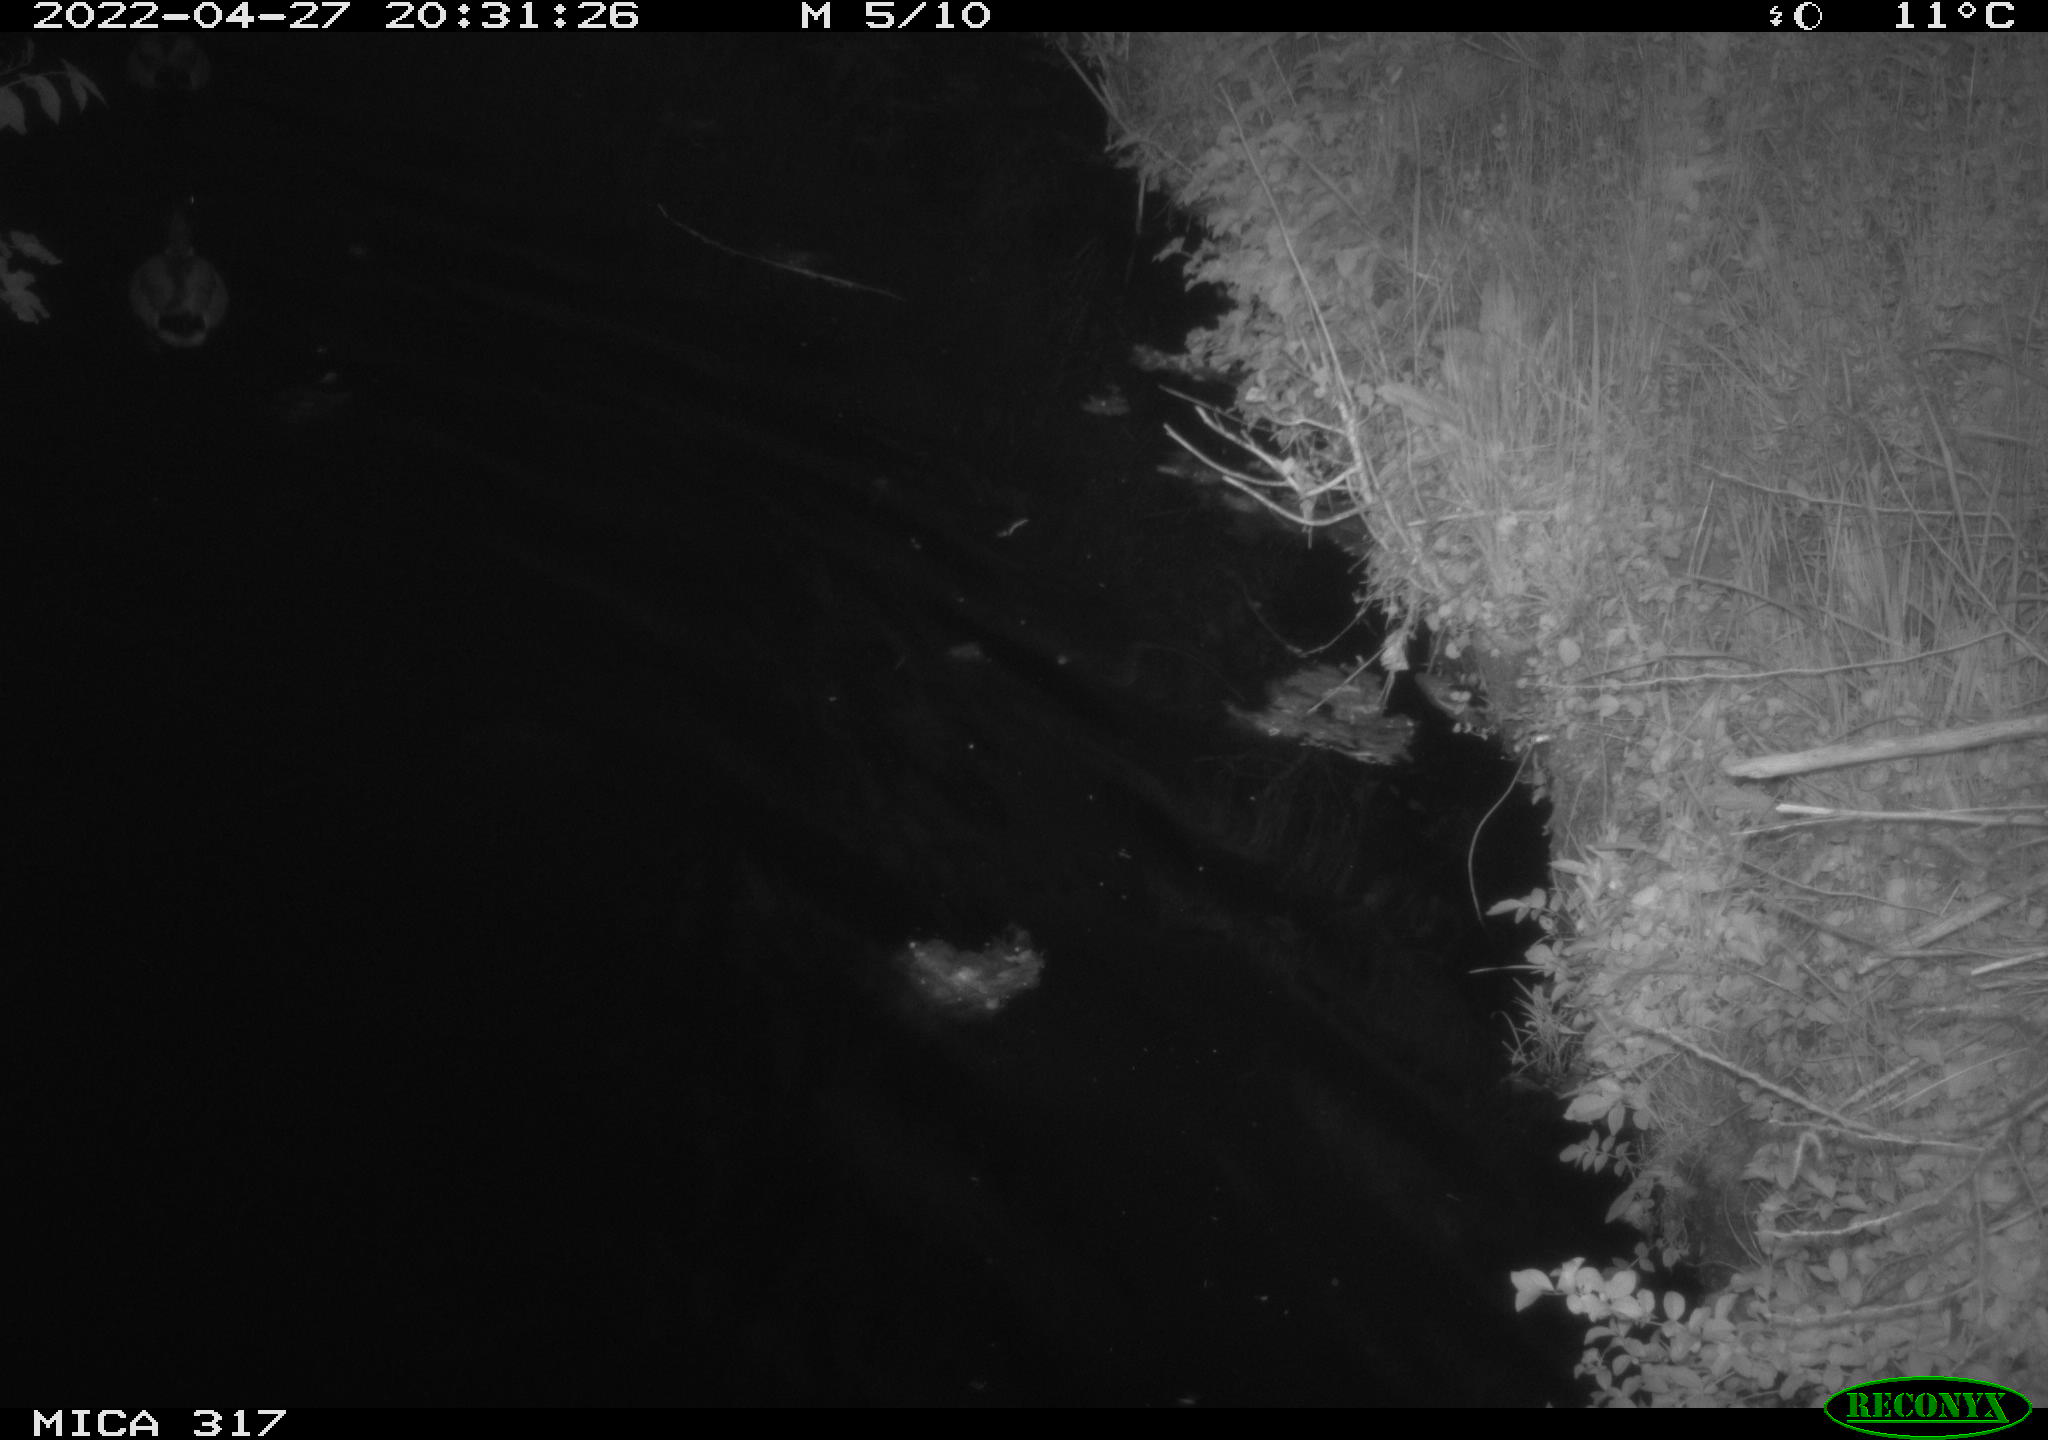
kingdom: Animalia
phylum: Chordata
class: Aves
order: Anseriformes
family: Anatidae
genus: Anas
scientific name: Anas platyrhynchos
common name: Mallard
